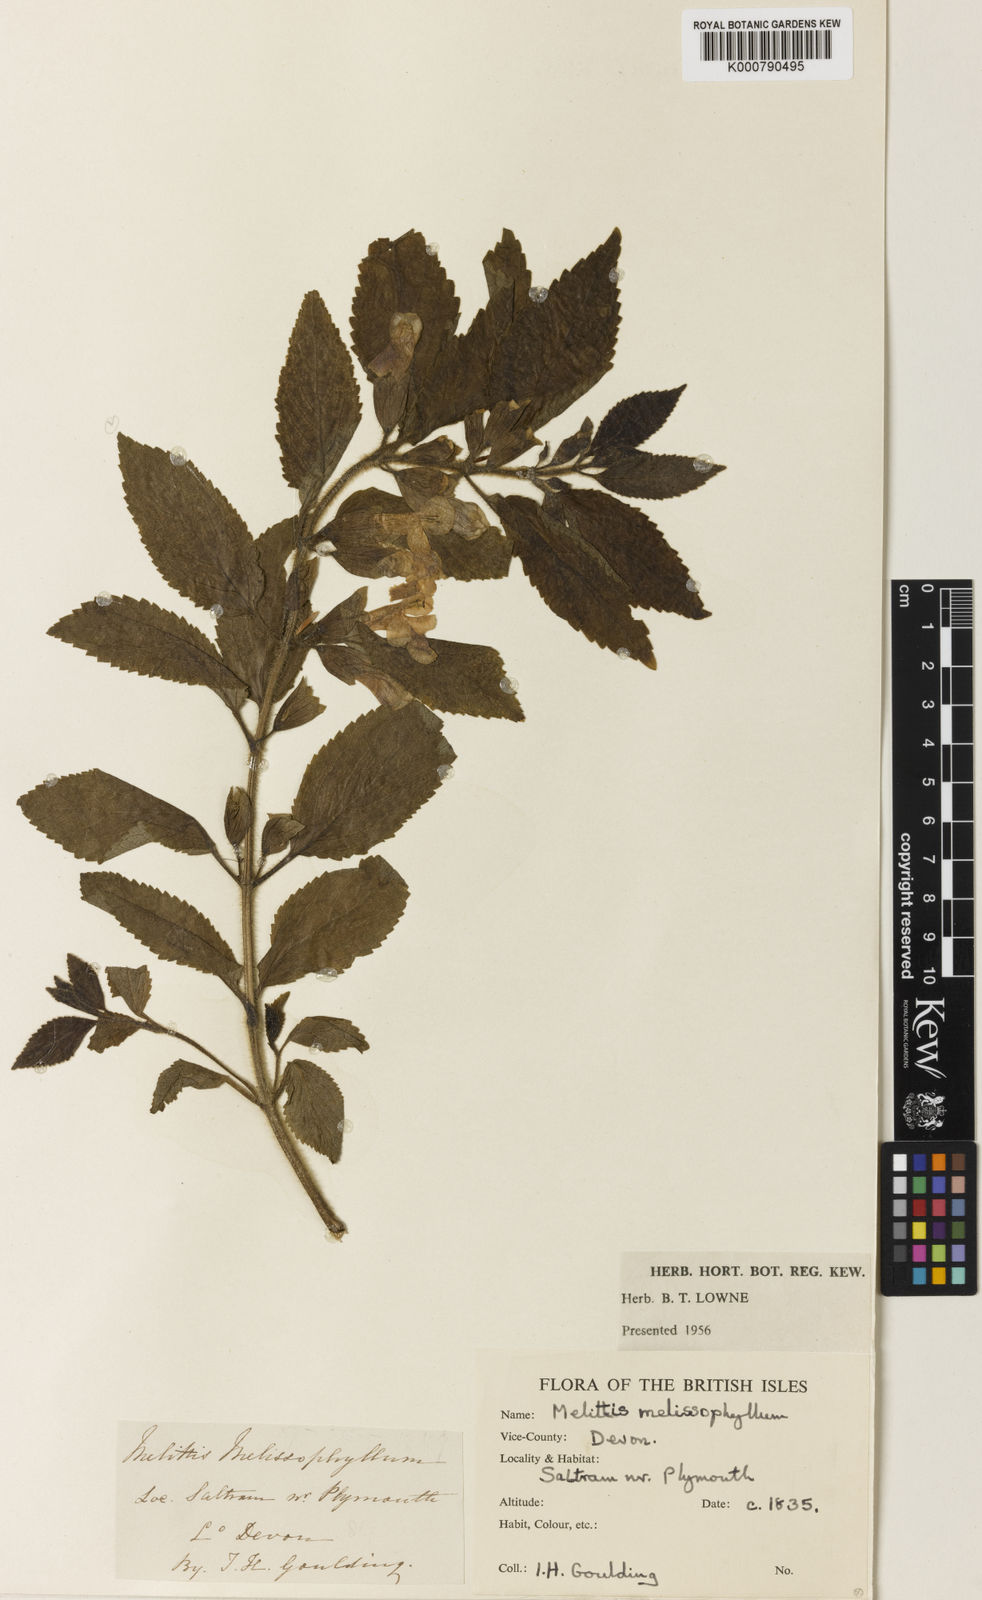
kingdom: Plantae
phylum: Tracheophyta
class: Magnoliopsida
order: Lamiales
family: Lamiaceae
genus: Melittis
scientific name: Melittis melissophyllum
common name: Bastard balm
